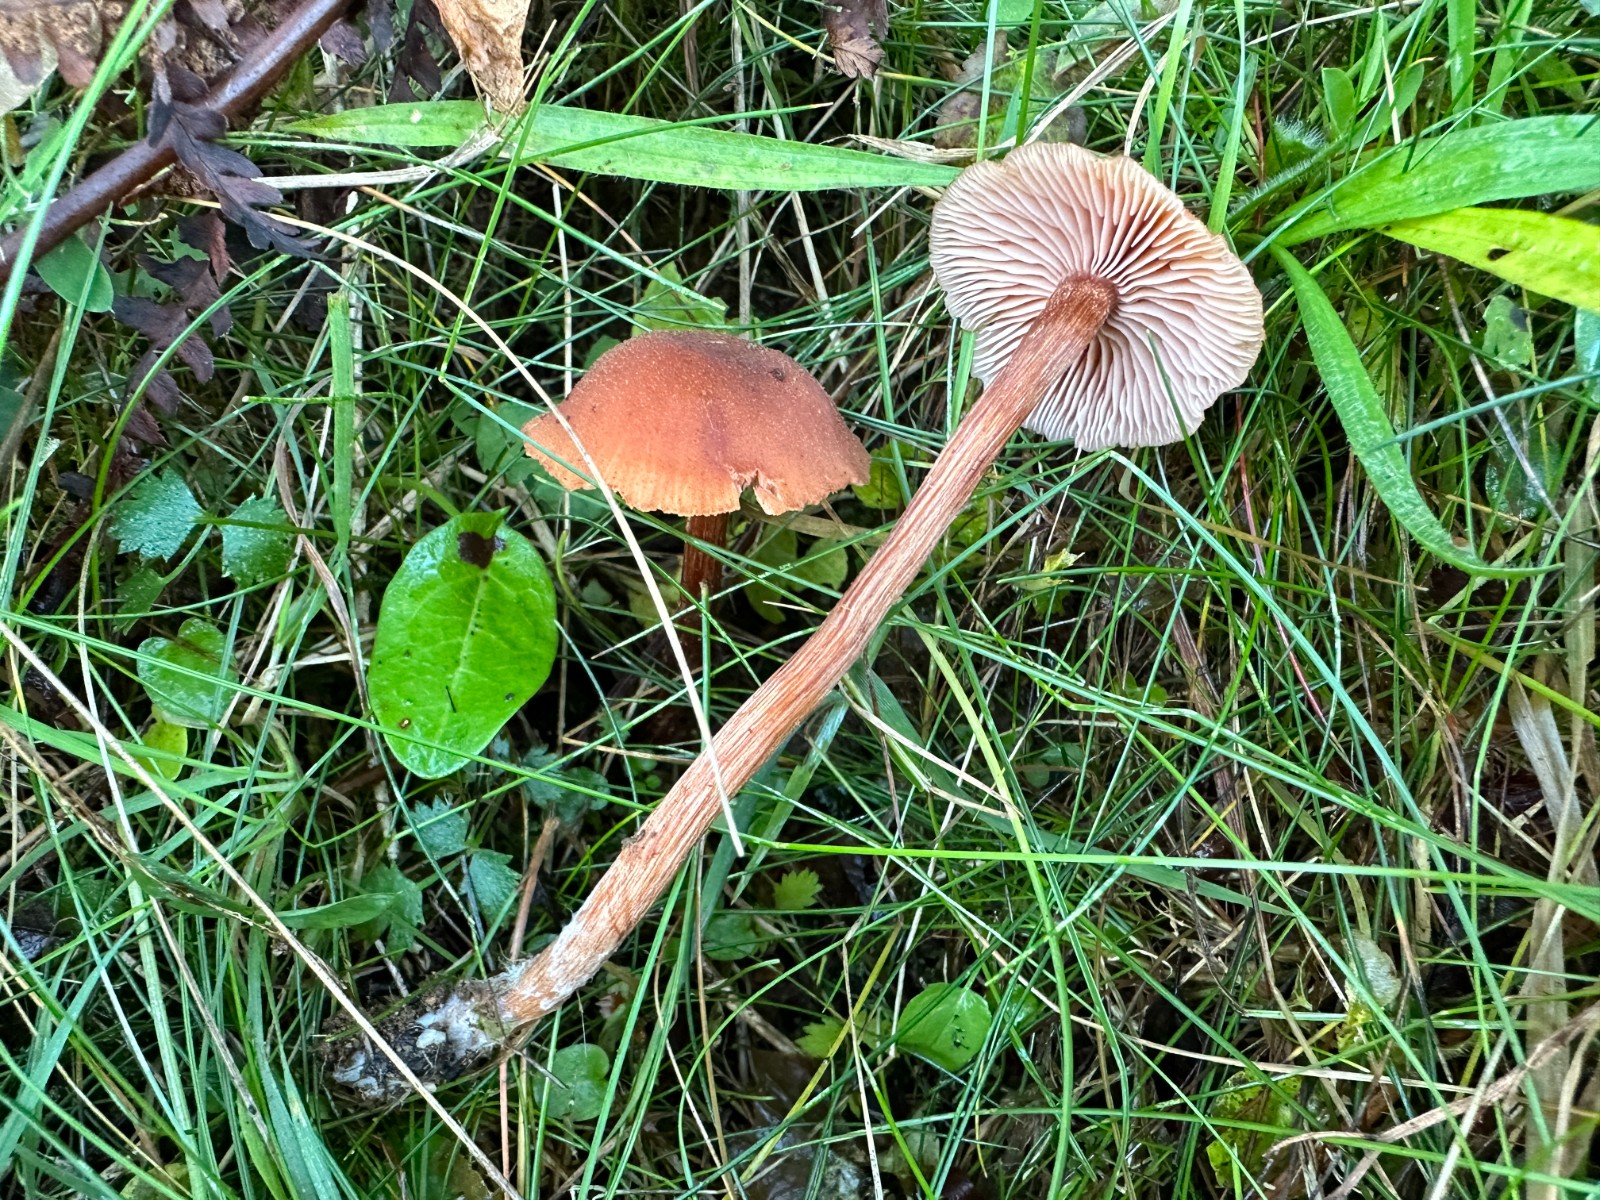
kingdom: Fungi
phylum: Basidiomycota
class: Agaricomycetes
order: Agaricales
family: Hydnangiaceae
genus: Laccaria
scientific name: Laccaria proxima
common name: stor ametysthat
